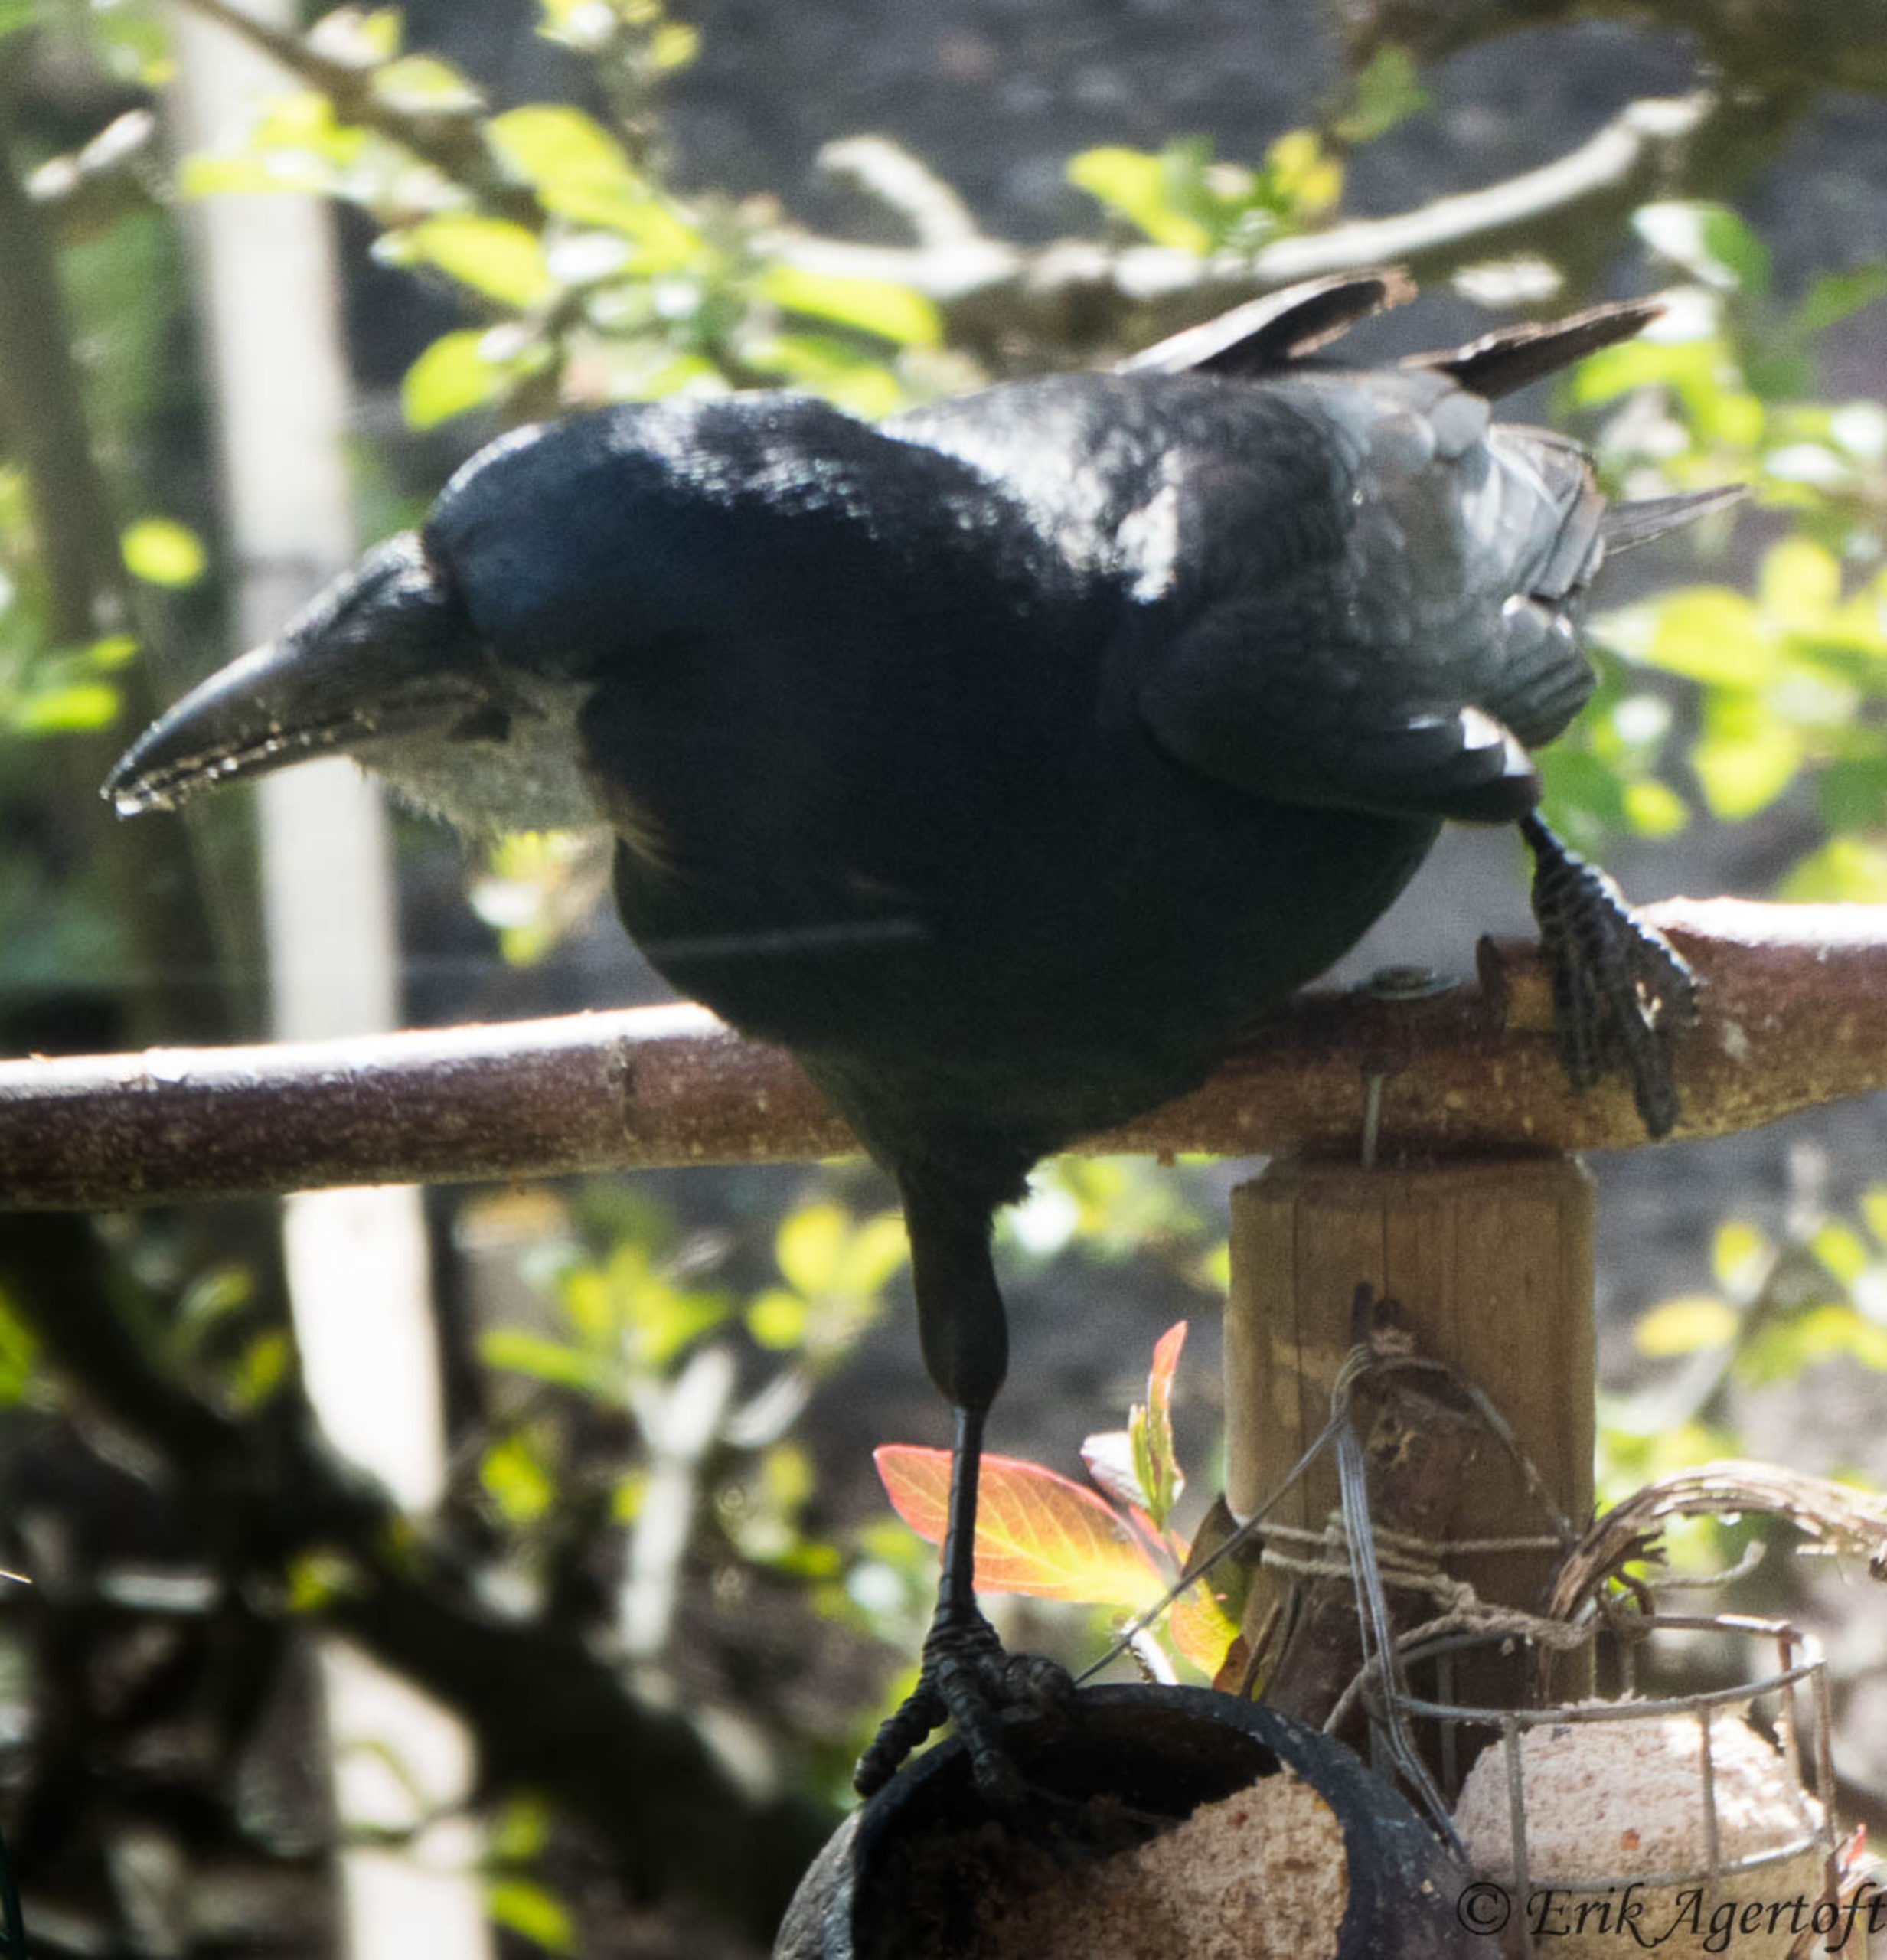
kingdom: Animalia
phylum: Chordata
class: Aves
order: Passeriformes
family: Corvidae
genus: Corvus
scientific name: Corvus frugilegus
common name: Råge
